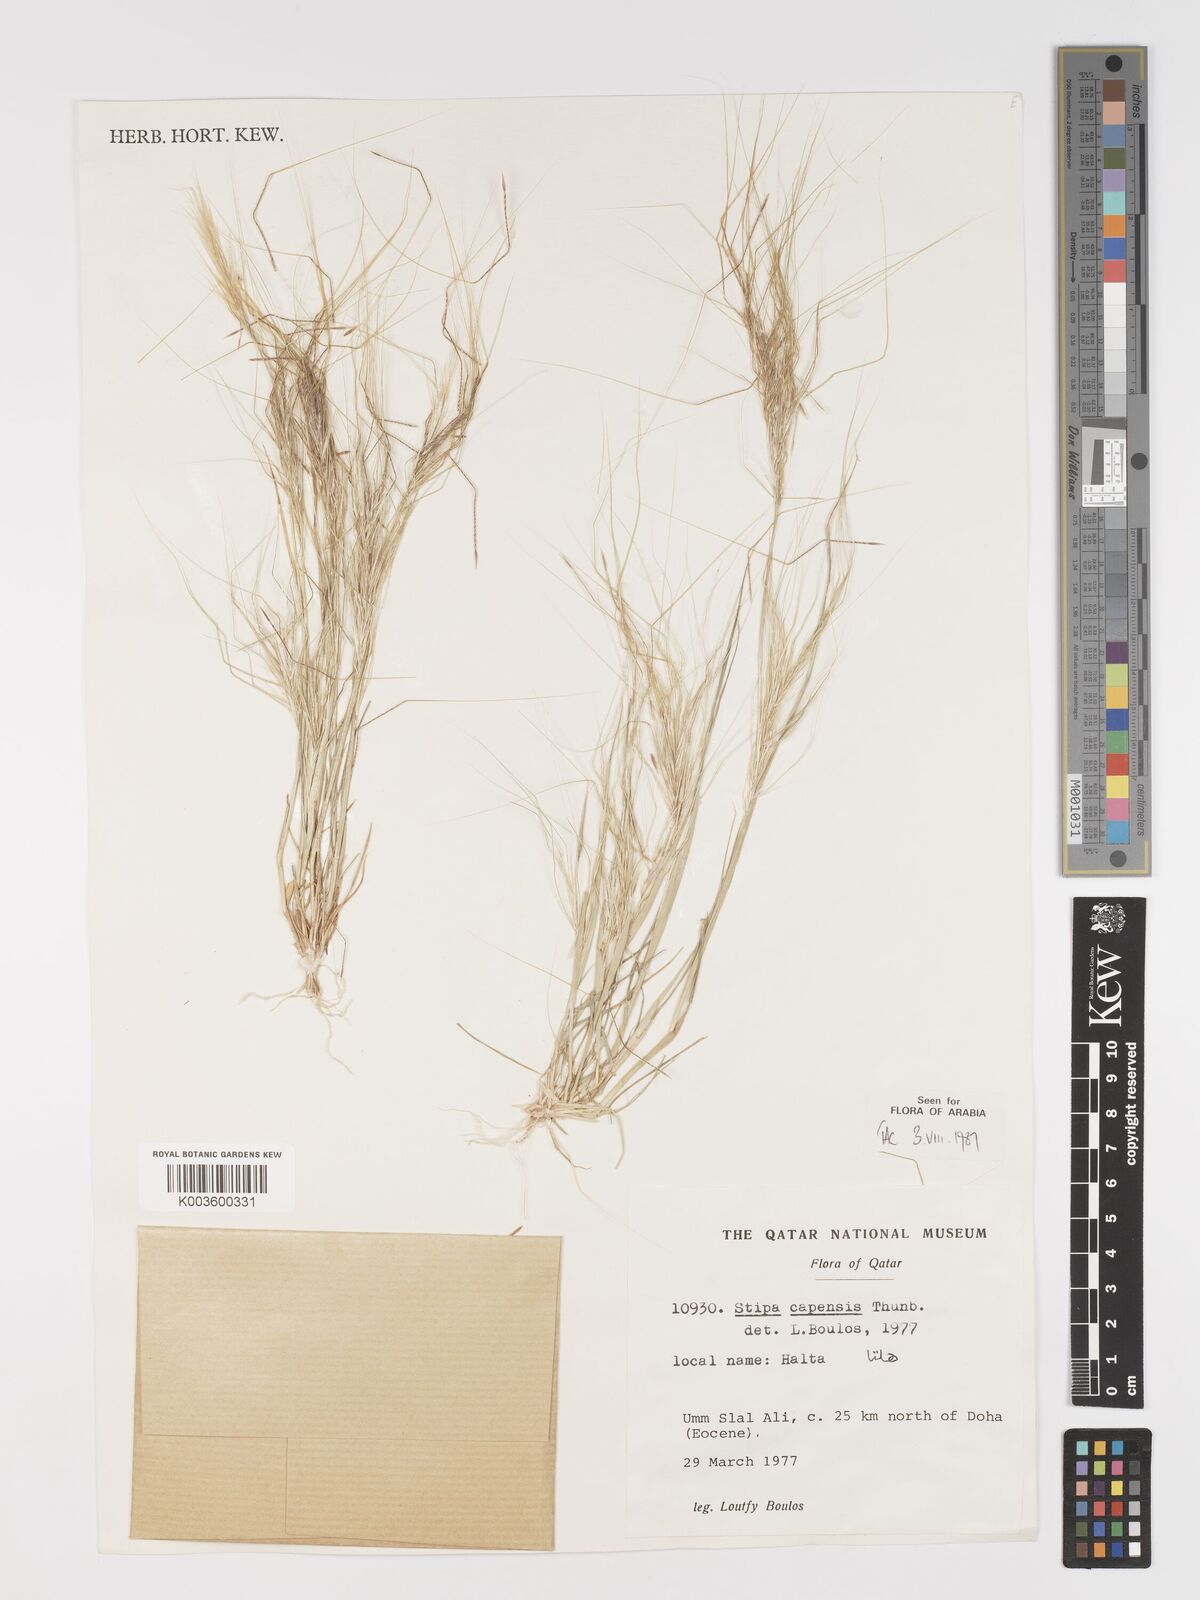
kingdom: Plantae
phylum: Tracheophyta
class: Liliopsida
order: Poales
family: Poaceae
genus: Stipellula
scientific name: Stipellula capensis
